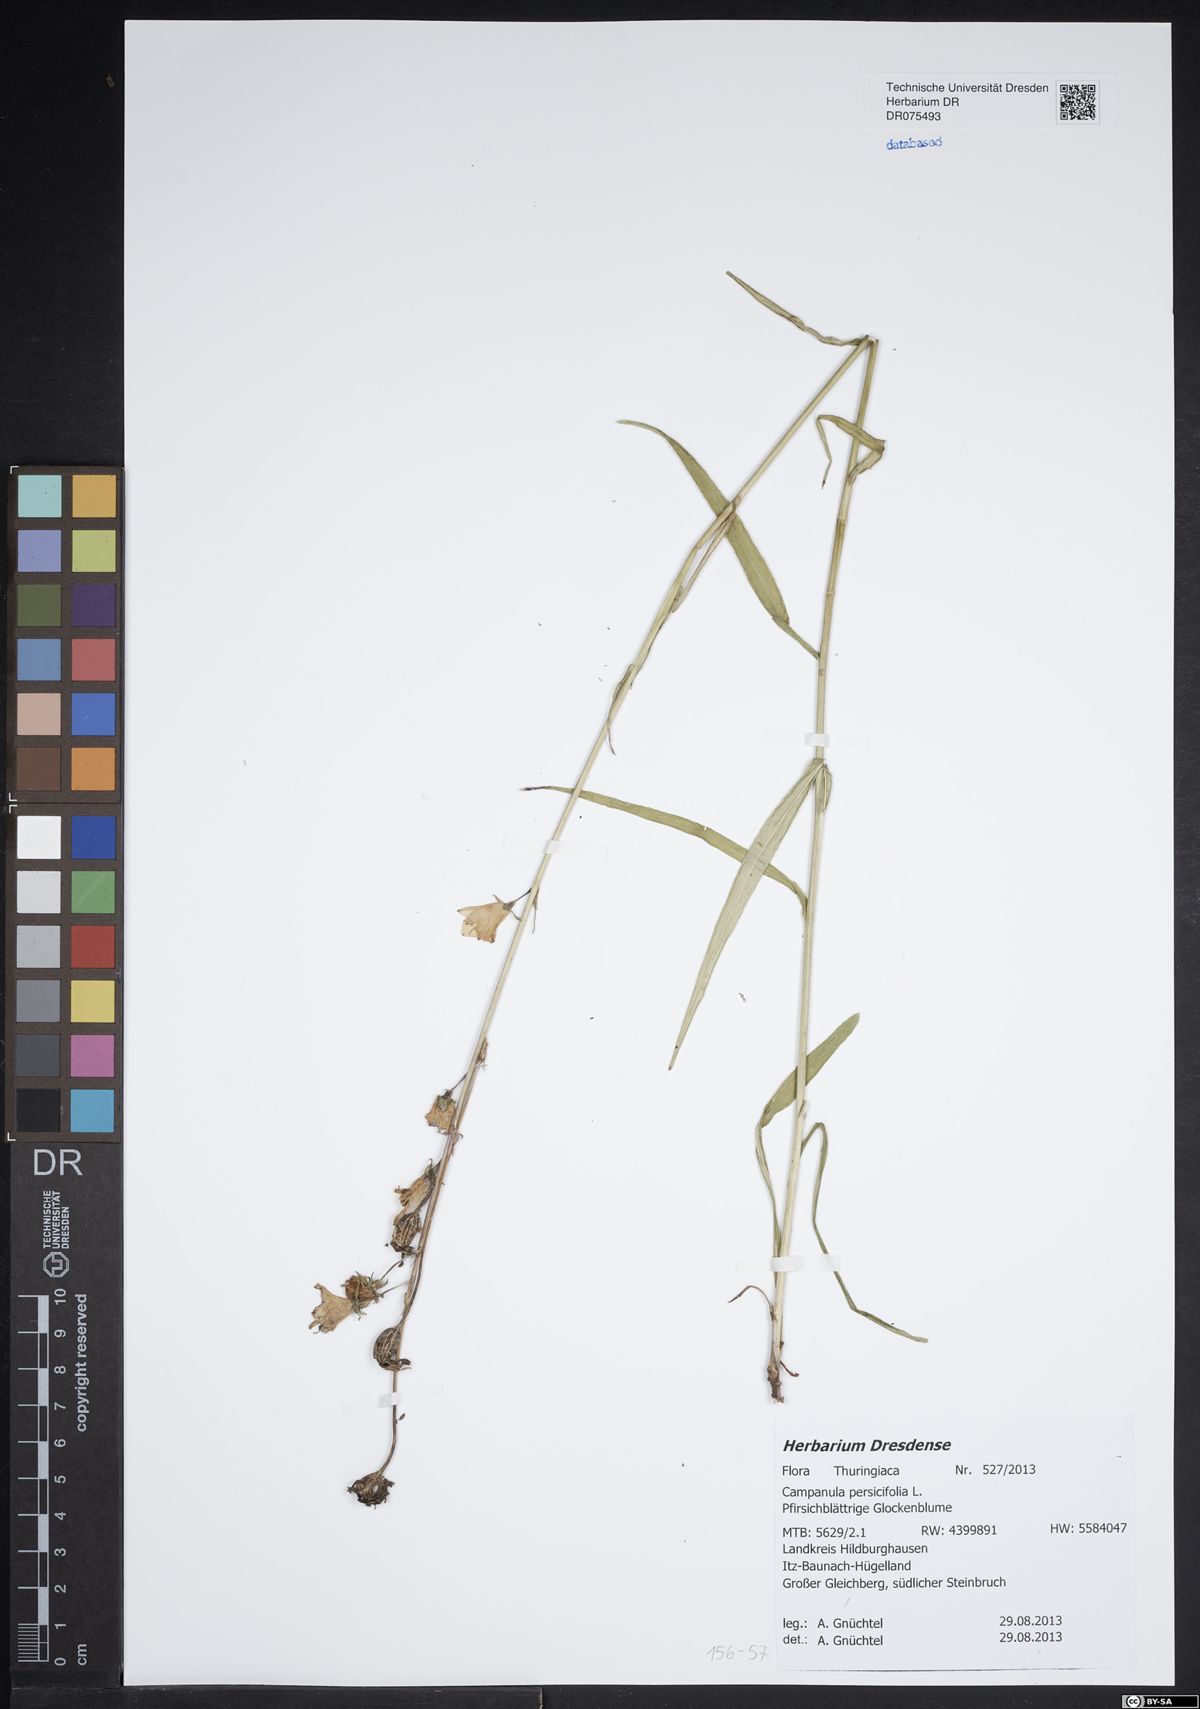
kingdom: Plantae
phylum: Tracheophyta
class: Magnoliopsida
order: Asterales
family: Campanulaceae
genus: Campanula
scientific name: Campanula persicifolia
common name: Peach-leaved bellflower
